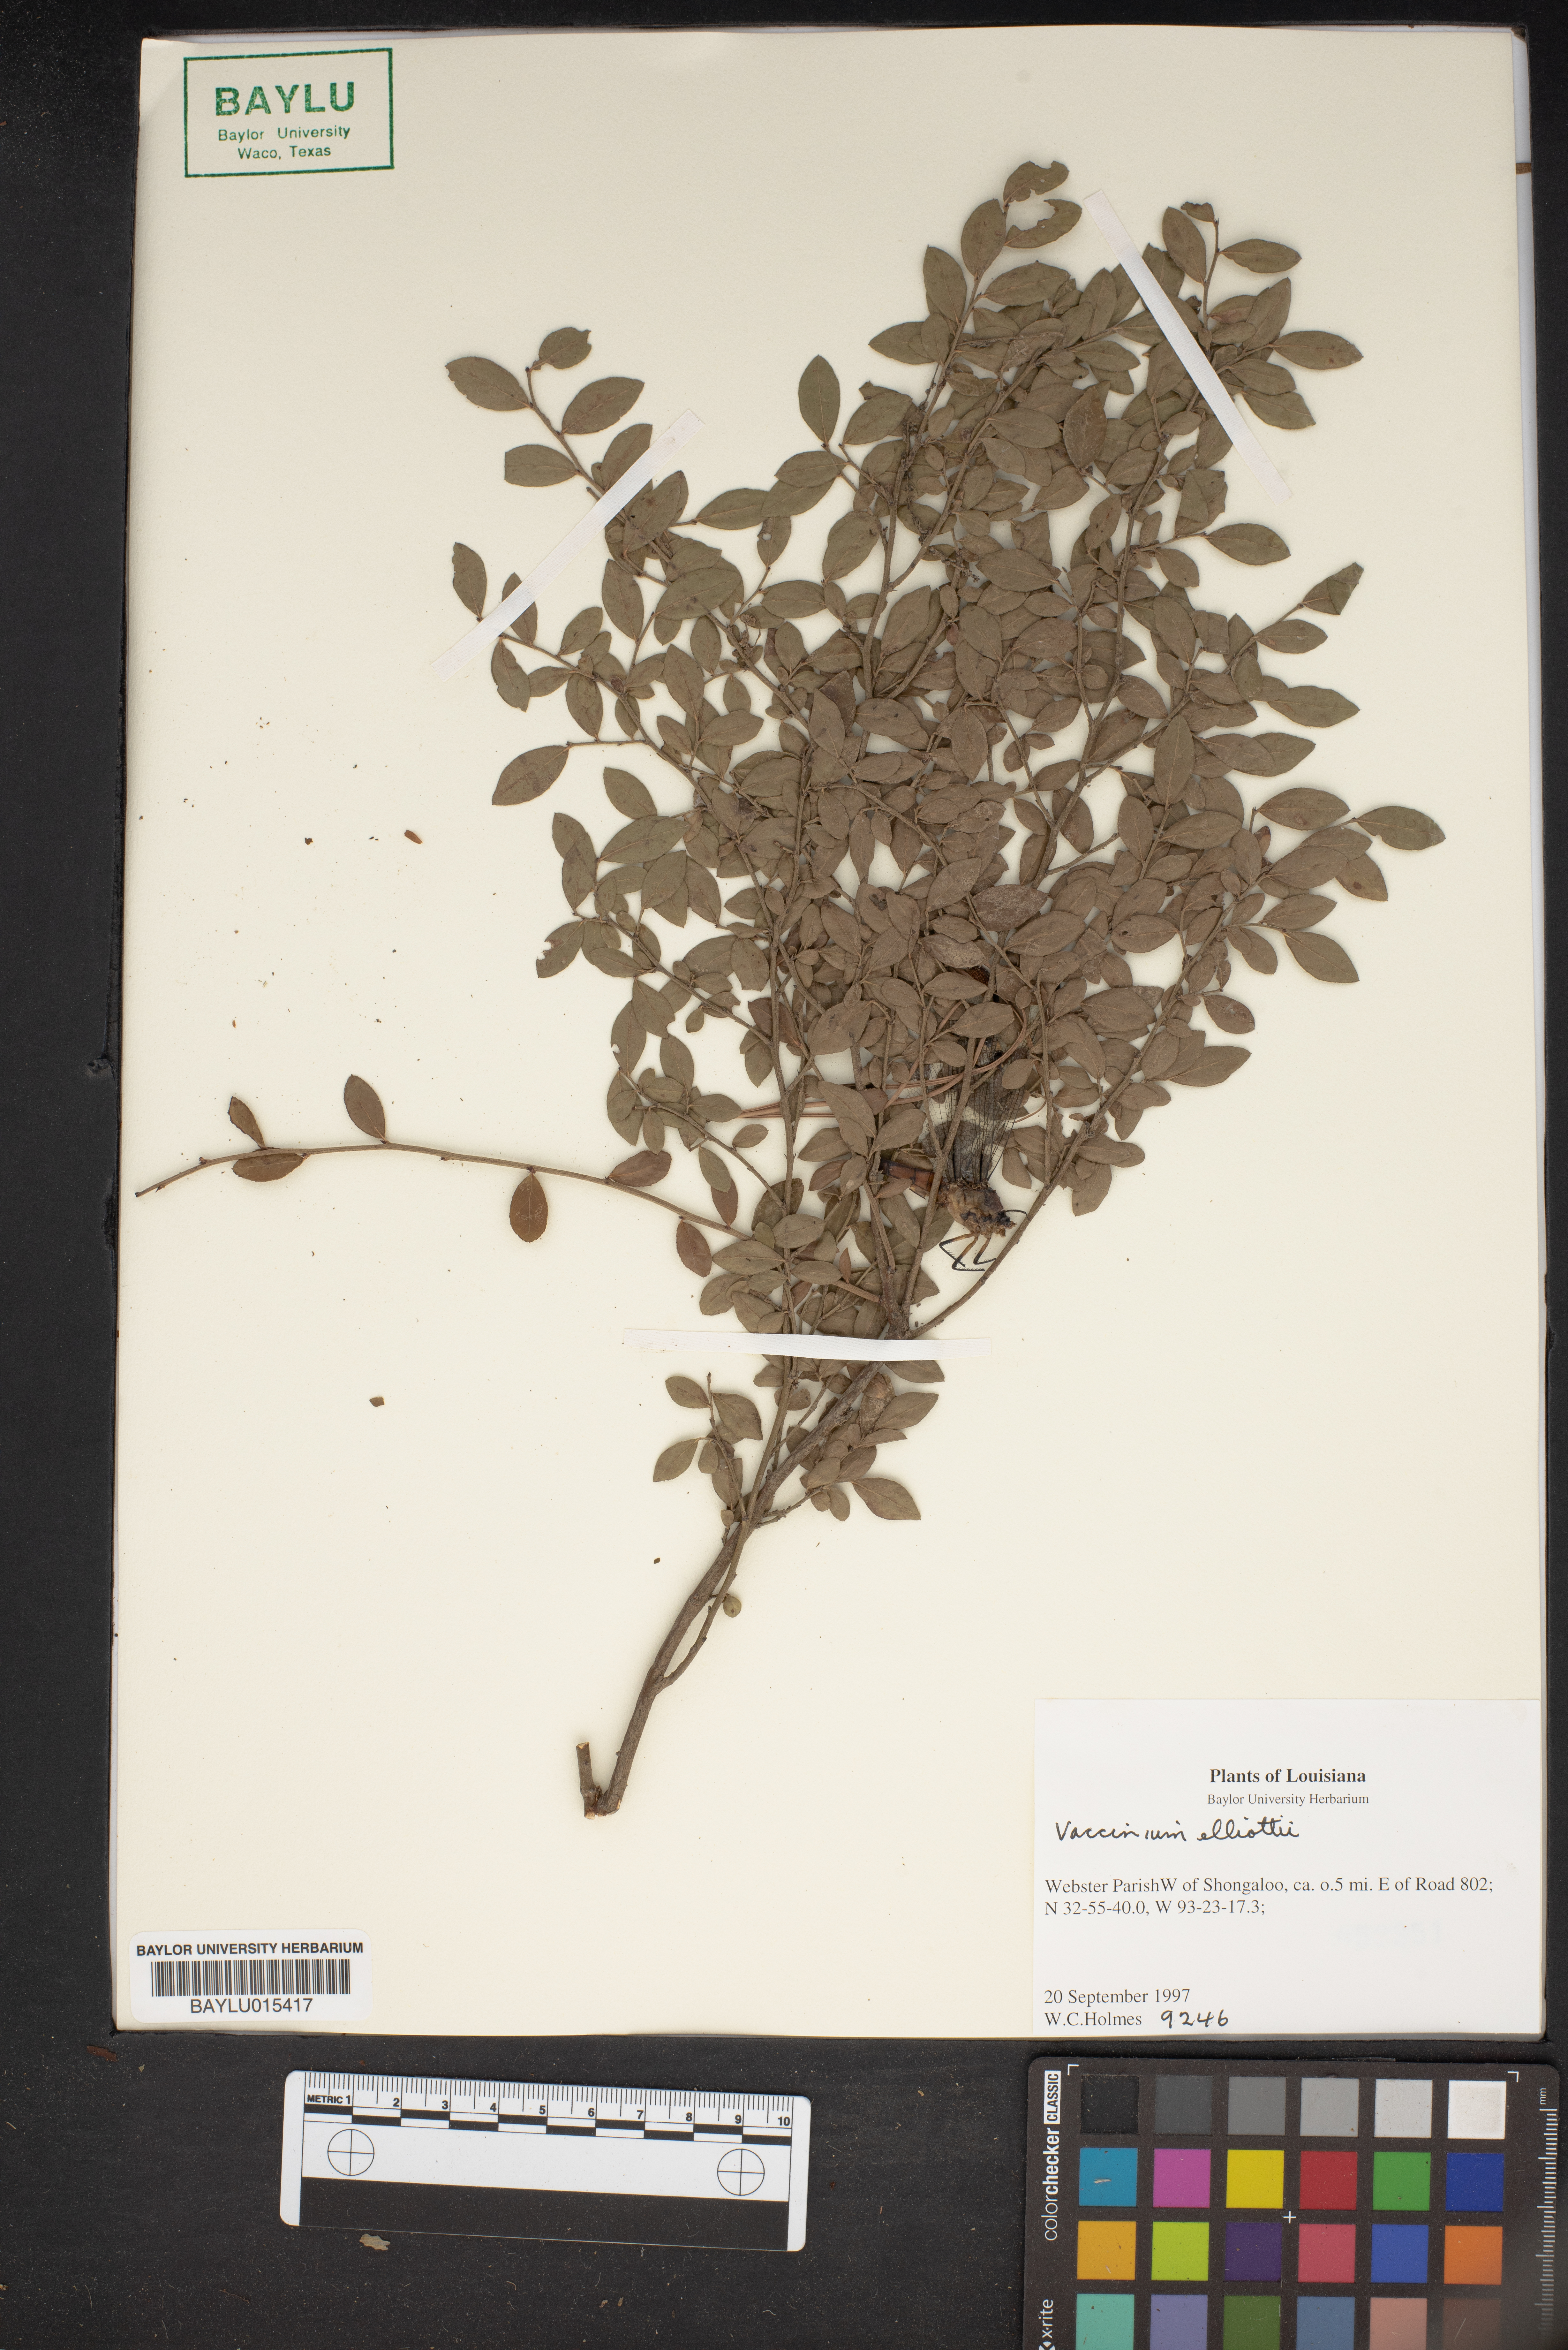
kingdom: Plantae
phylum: Tracheophyta
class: Magnoliopsida
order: Ericales
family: Ericaceae
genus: Vaccinium
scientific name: Vaccinium corymbosum
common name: Blueberry
